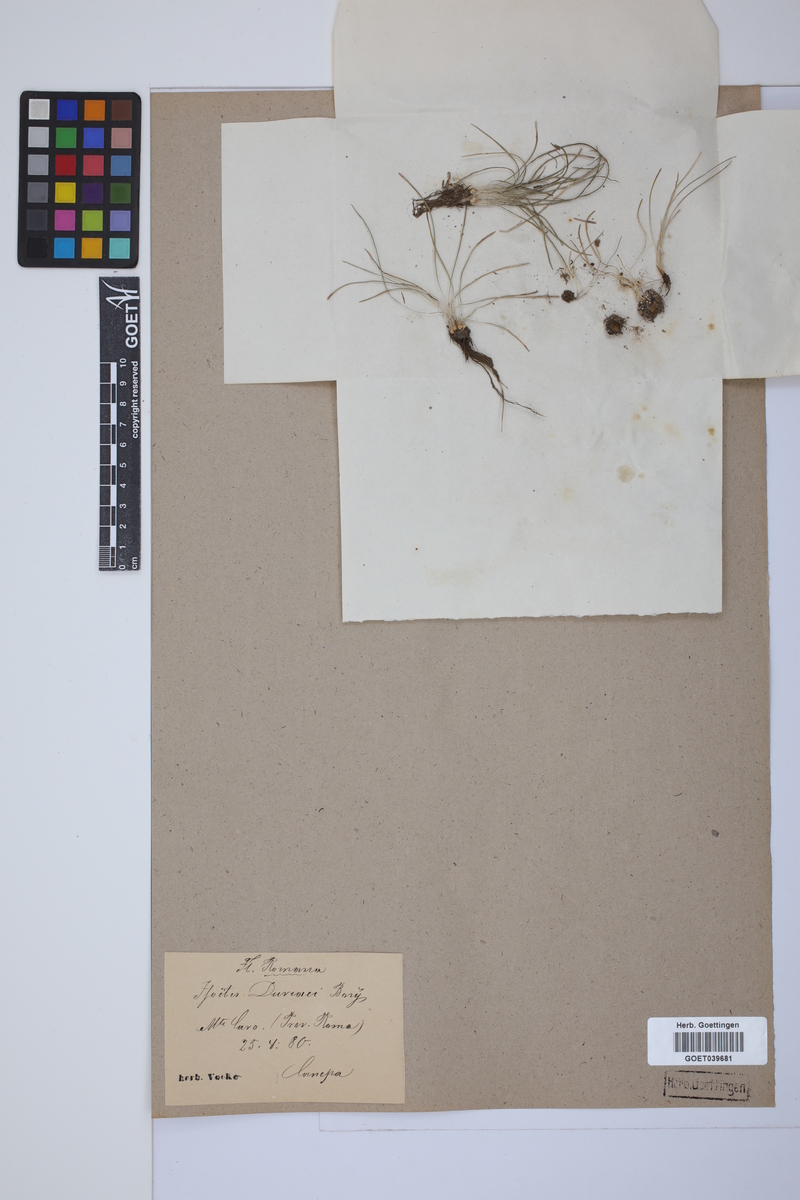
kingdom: Plantae
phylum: Tracheophyta
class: Lycopodiopsida
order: Isoetales
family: Isoetaceae
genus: Isoetes
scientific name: Isoetes duriei
